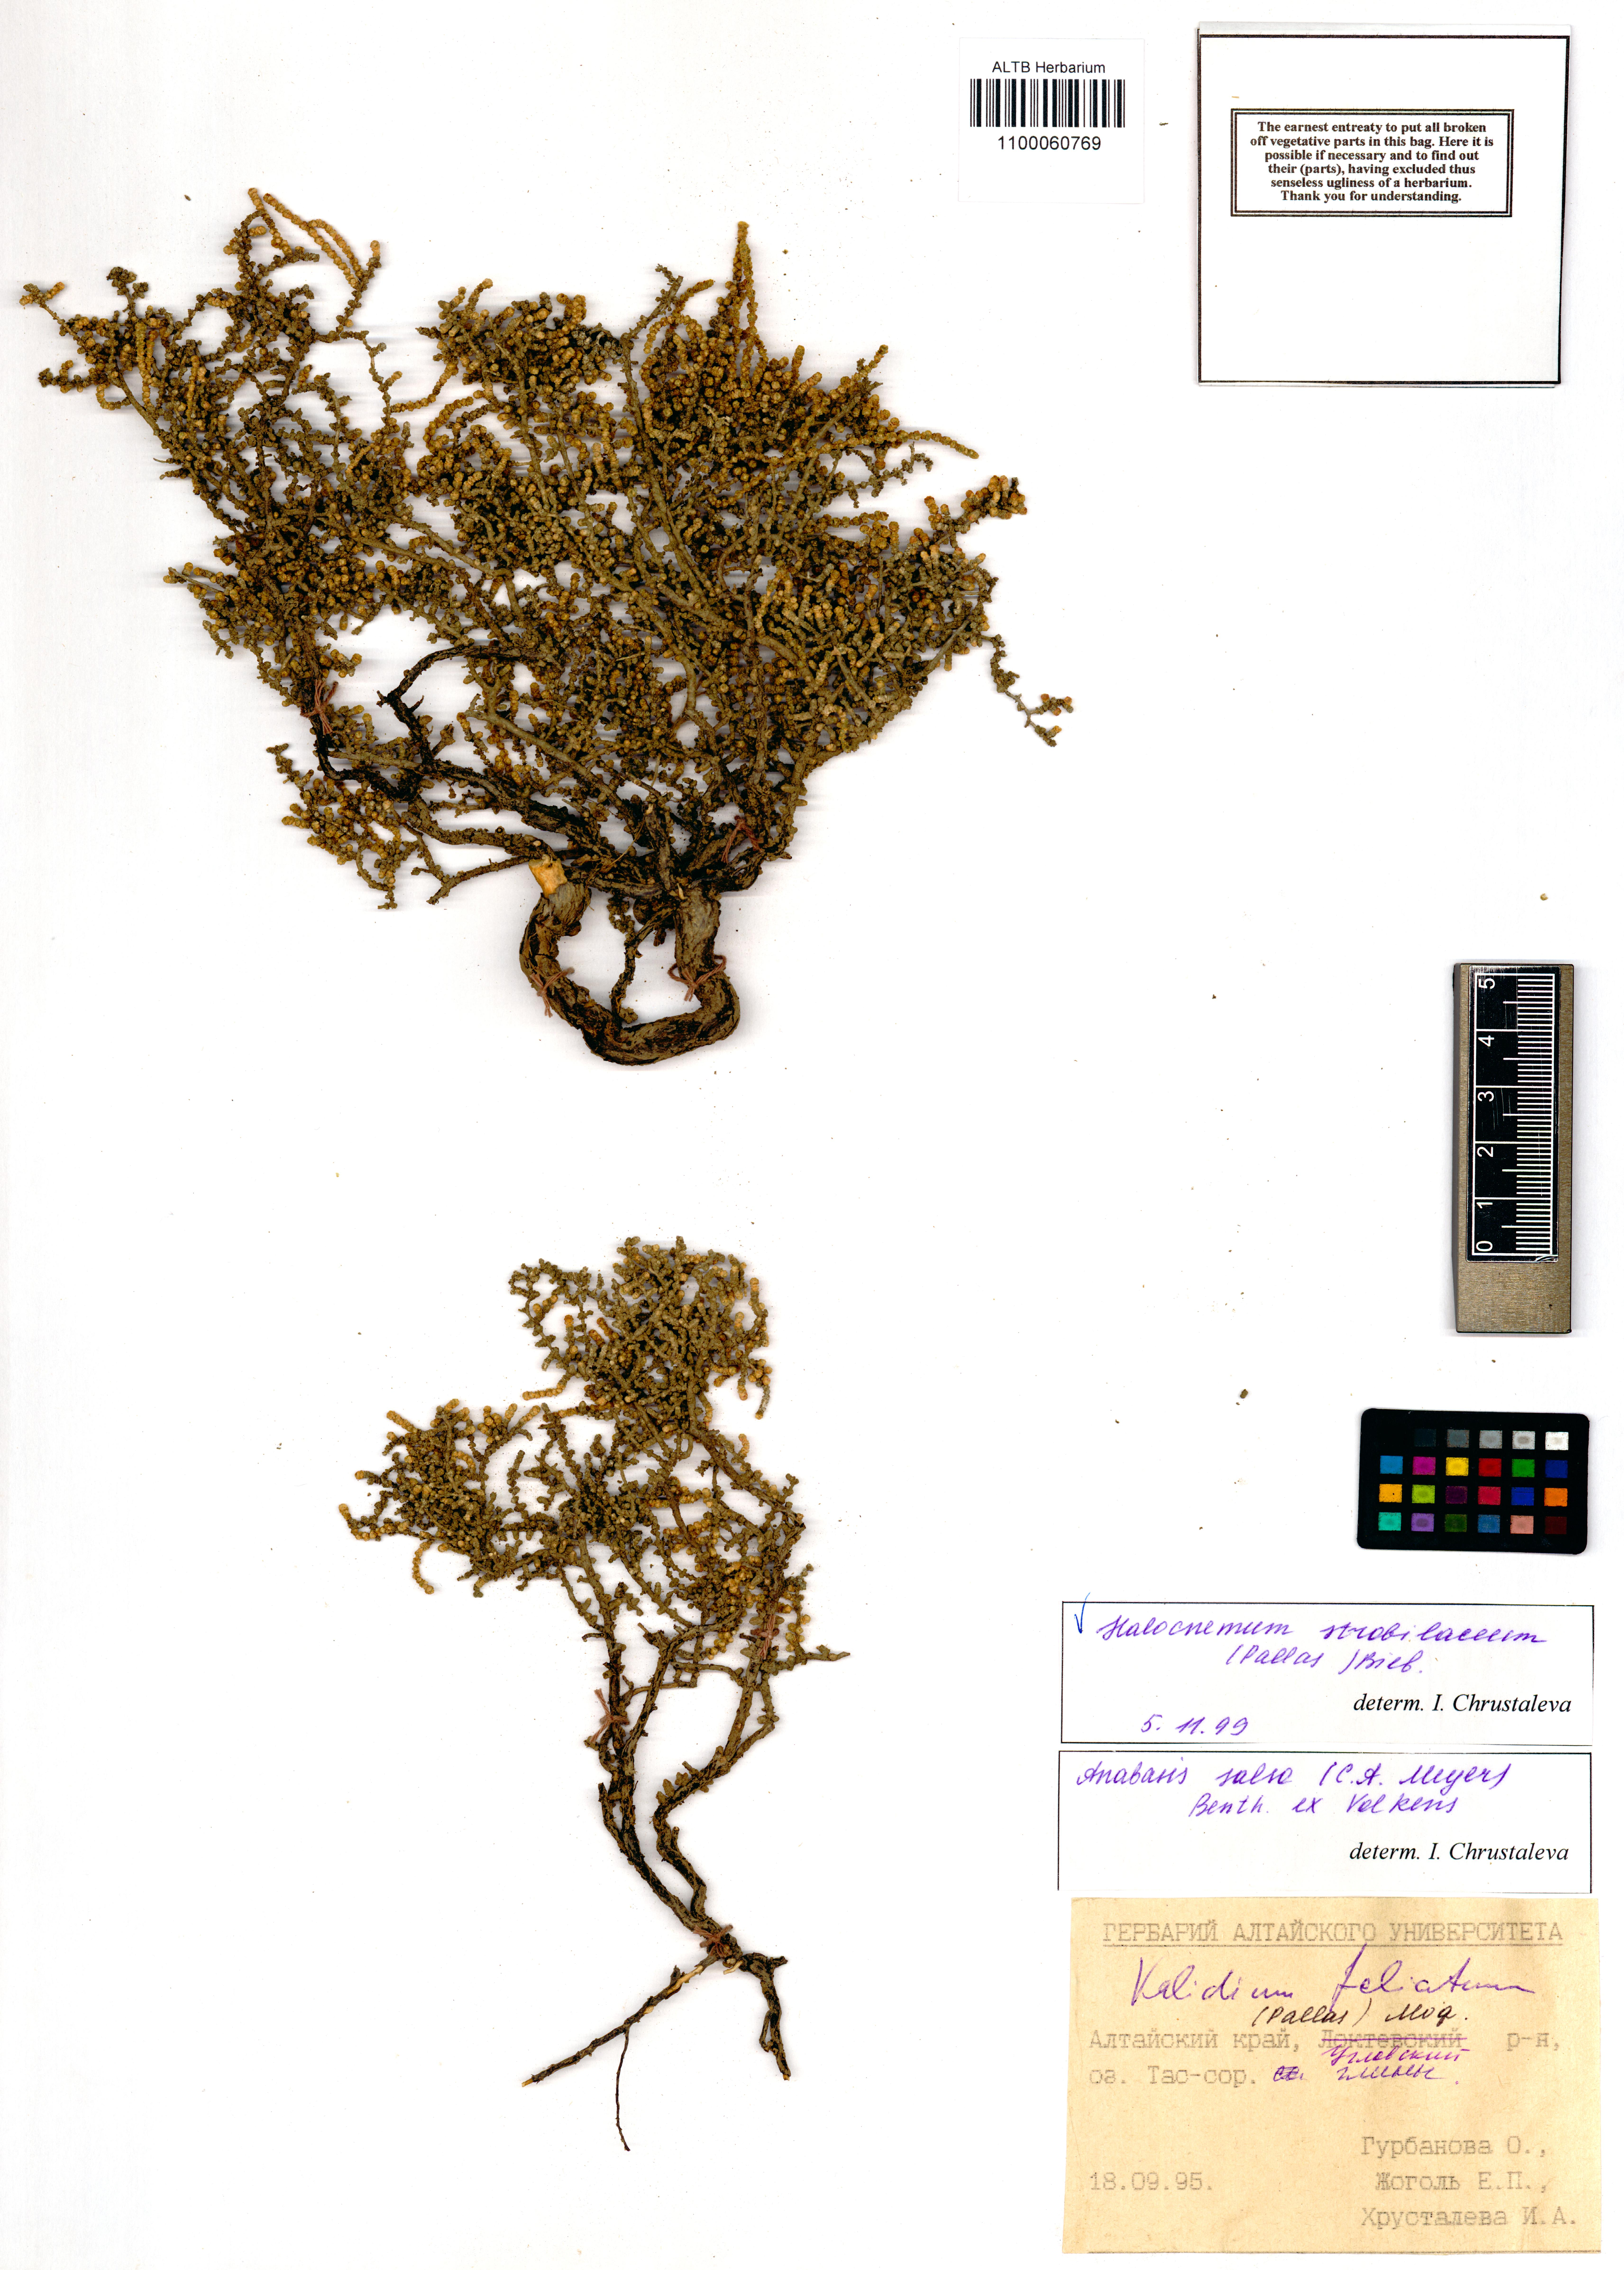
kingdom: Plantae
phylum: Tracheophyta
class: Magnoliopsida
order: Caryophyllales
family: Amaranthaceae
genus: Halocnemum
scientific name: Halocnemum strobilaceum
